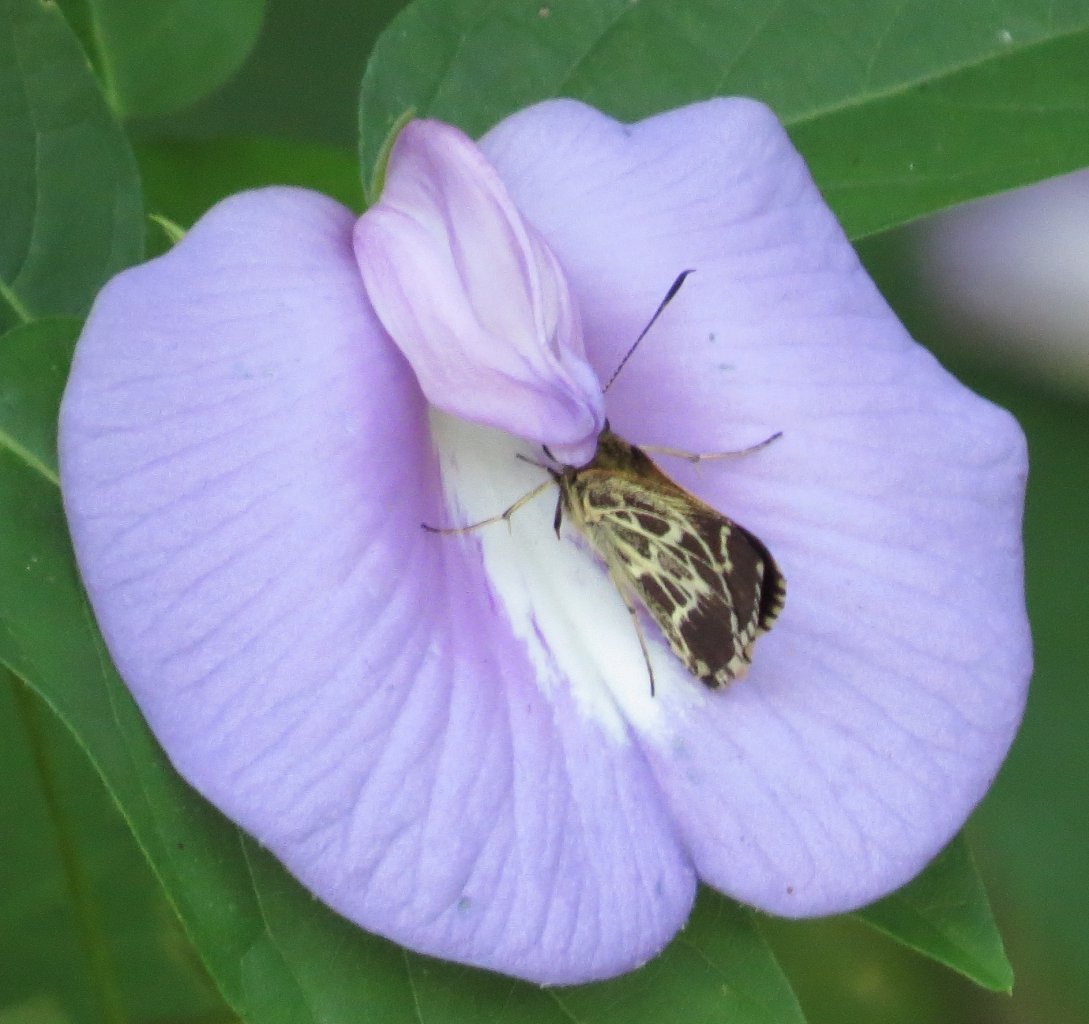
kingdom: Animalia
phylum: Arthropoda
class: Insecta
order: Lepidoptera
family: Hesperiidae
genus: Mastor
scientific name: Mastor aesculapius
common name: Lace-winged Roadside-Skipper
